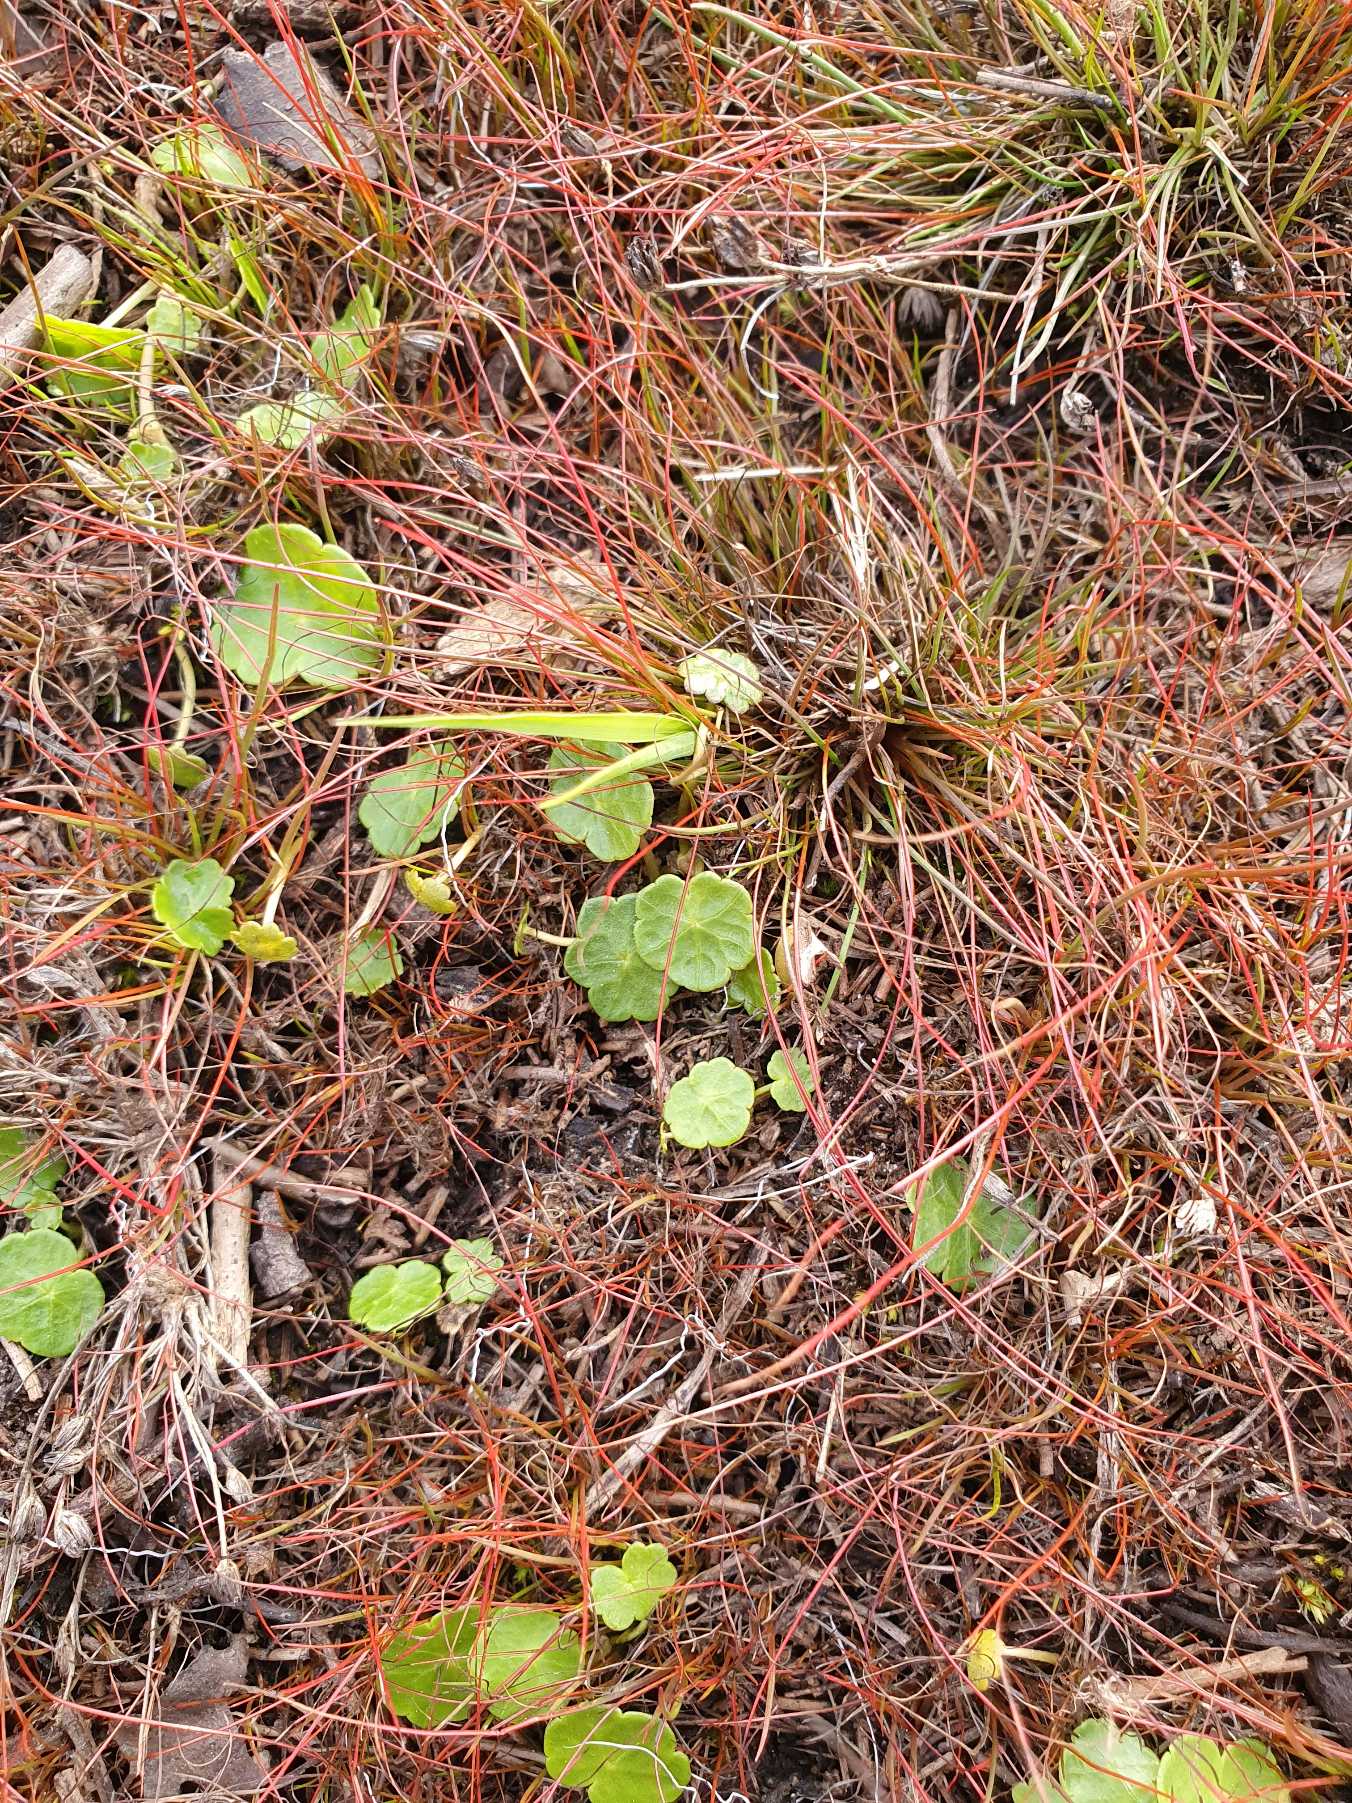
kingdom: Plantae
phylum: Tracheophyta
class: Magnoliopsida
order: Apiales
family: Araliaceae
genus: Hydrocotyle
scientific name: Hydrocotyle vulgaris
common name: Vandnavle
